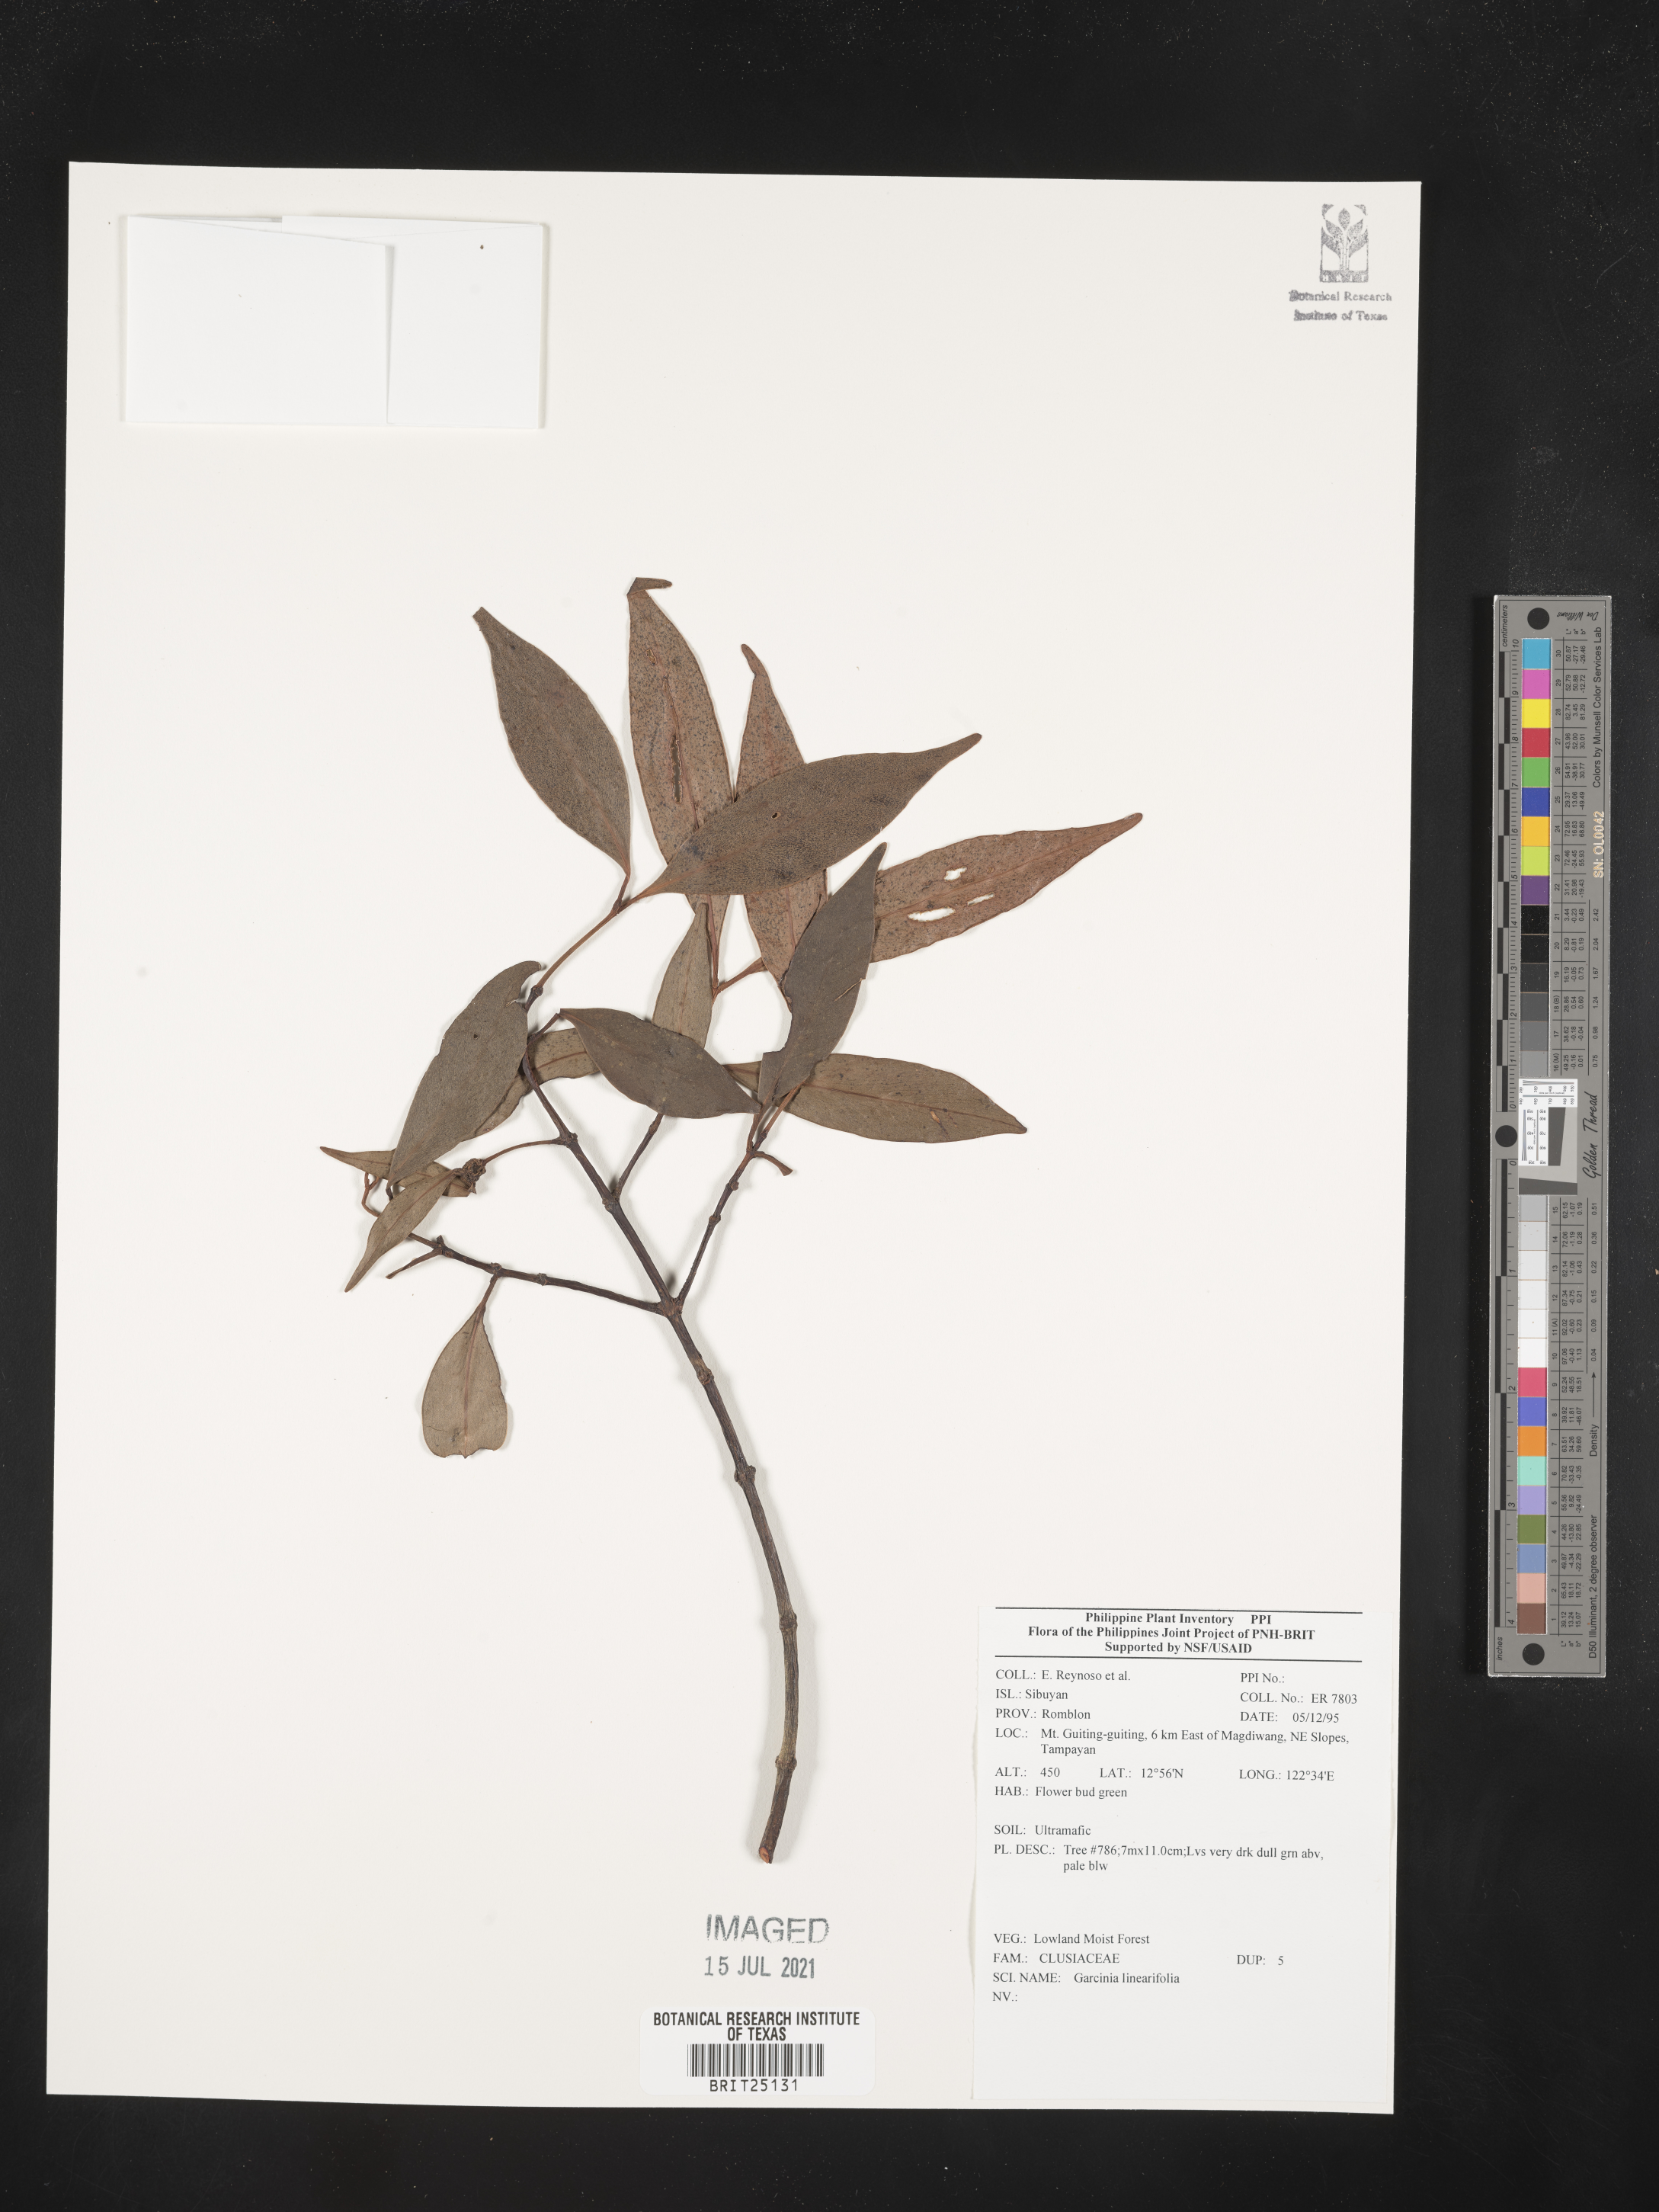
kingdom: Plantae
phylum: Tracheophyta
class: Magnoliopsida
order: Malpighiales
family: Clusiaceae
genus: Garcinia
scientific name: Garcinia linearifolia
